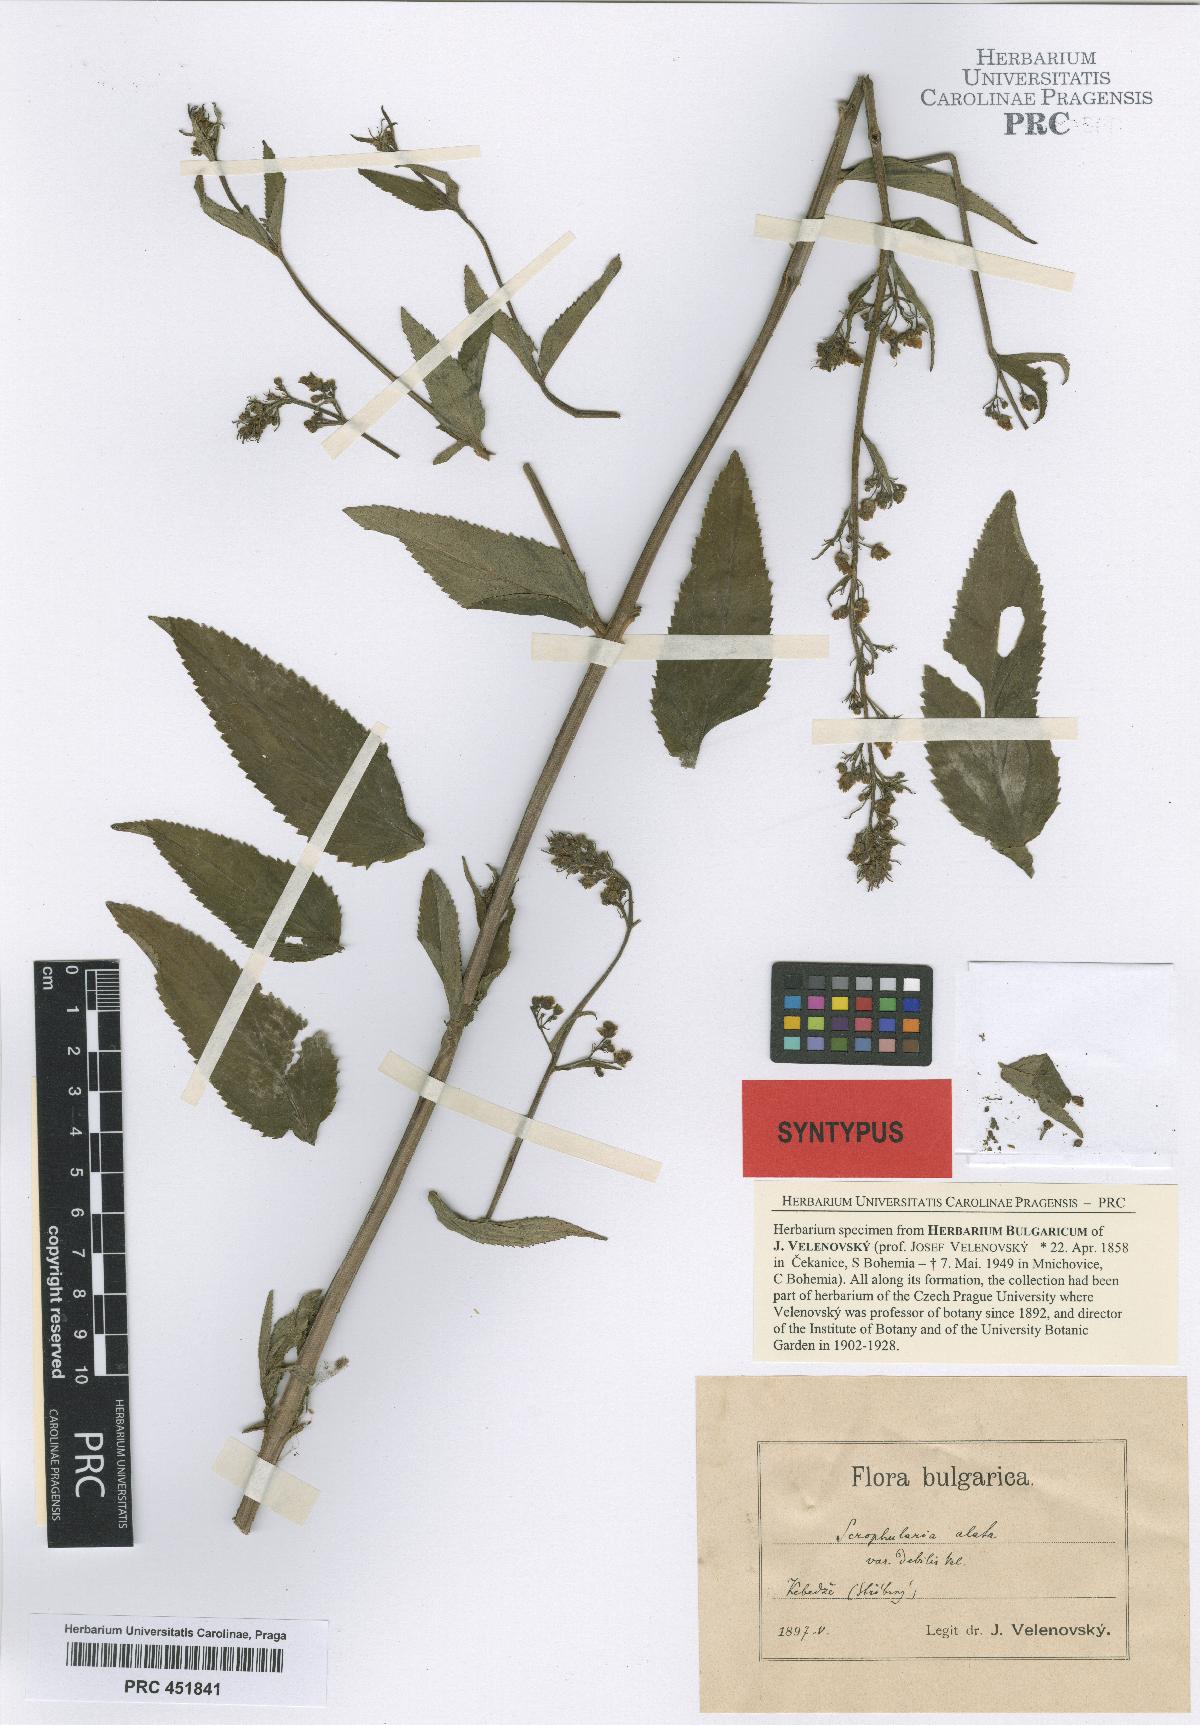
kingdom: Plantae
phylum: Tracheophyta
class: Magnoliopsida
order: Lamiales
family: Scrophulariaceae
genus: Scrophularia
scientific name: Scrophularia alata
